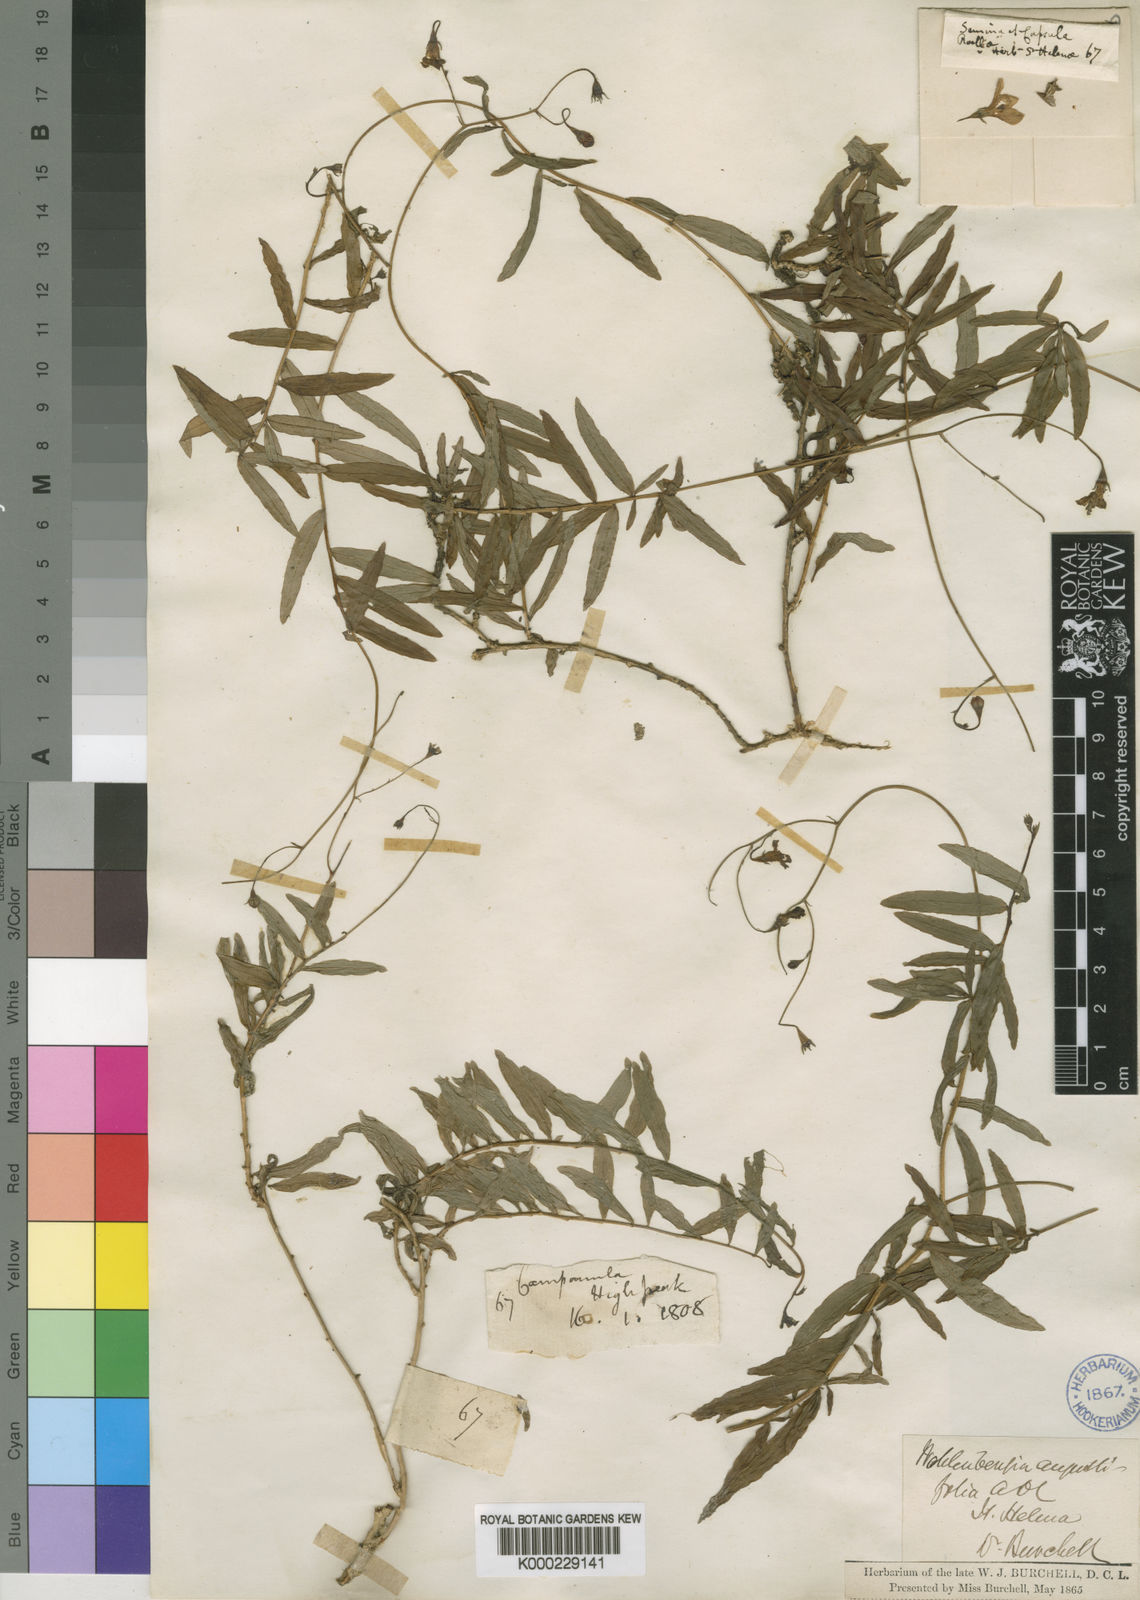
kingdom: Plantae
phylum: Tracheophyta
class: Magnoliopsida
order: Asterales
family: Campanulaceae
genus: Wahlenbergia
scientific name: Wahlenbergia angustifolia
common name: Small bellflower
